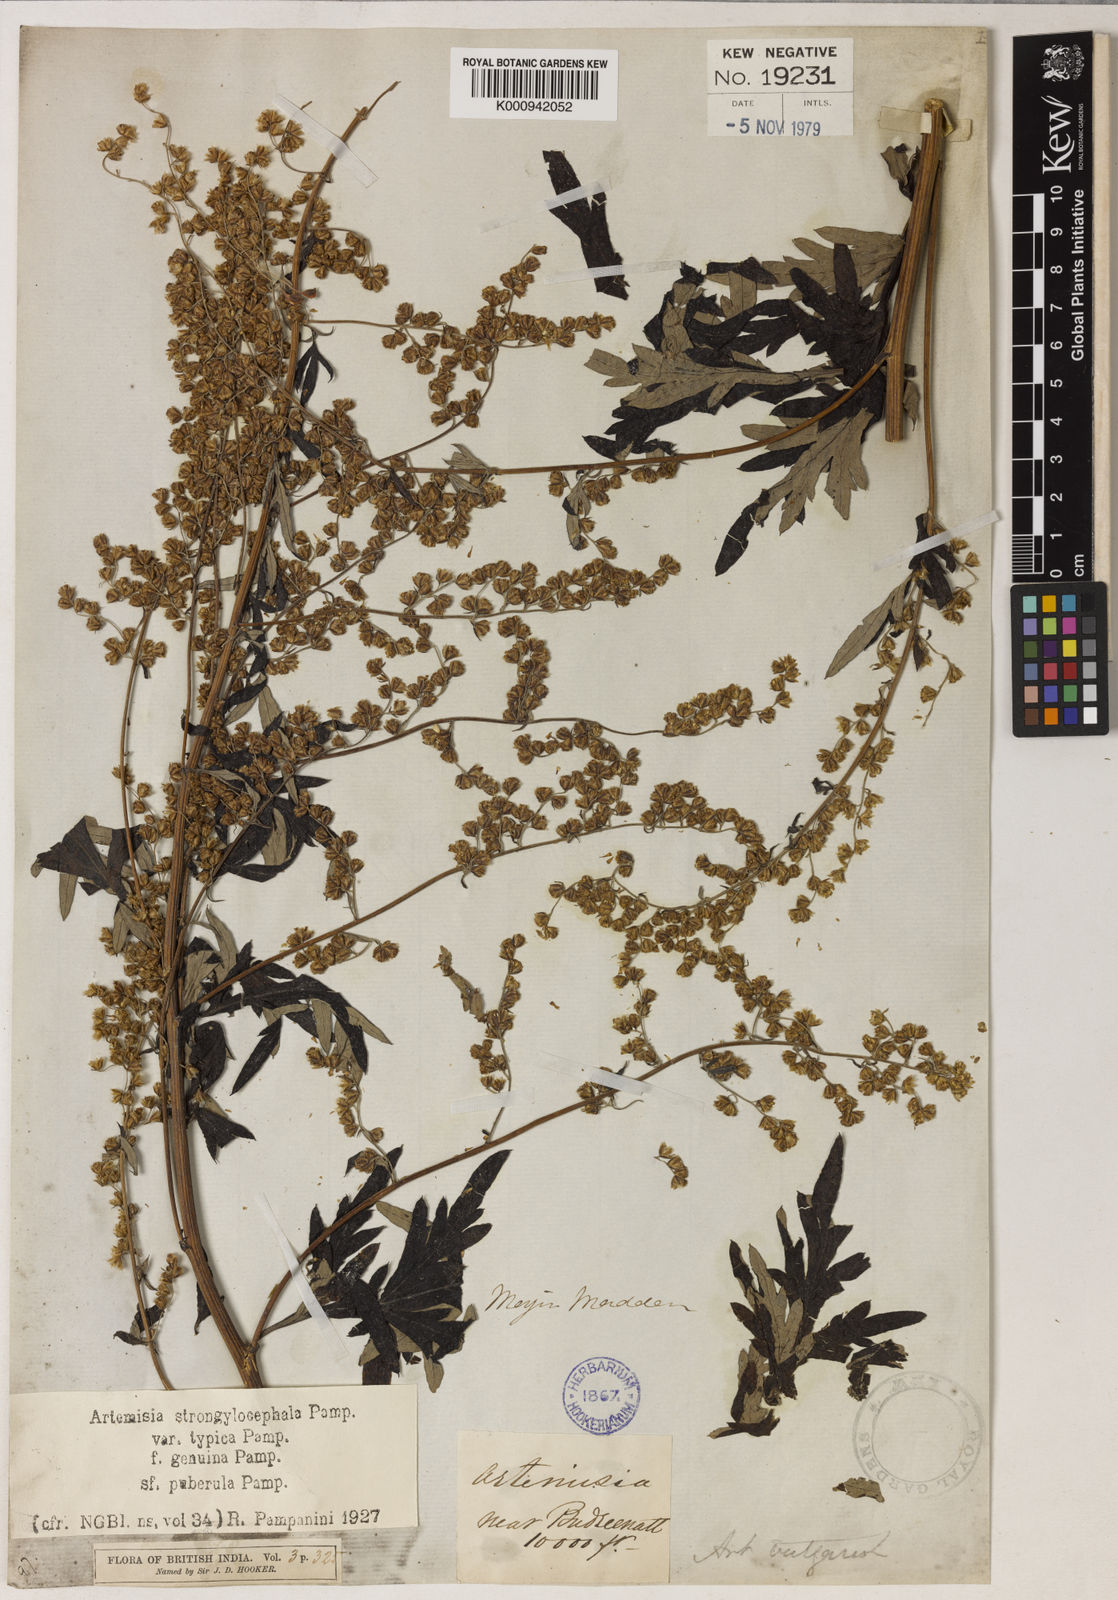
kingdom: Plantae
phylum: Tracheophyta
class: Magnoliopsida
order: Asterales
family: Asteraceae
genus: Artemisia
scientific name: Artemisia moorcroftiana
